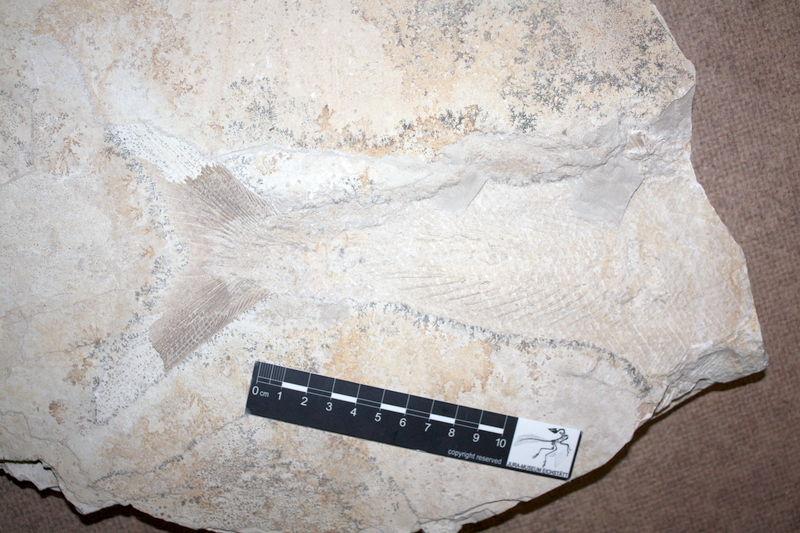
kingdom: Animalia
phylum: Chordata
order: Amiiformes
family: Caturidae
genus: Caturus
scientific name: Caturus
